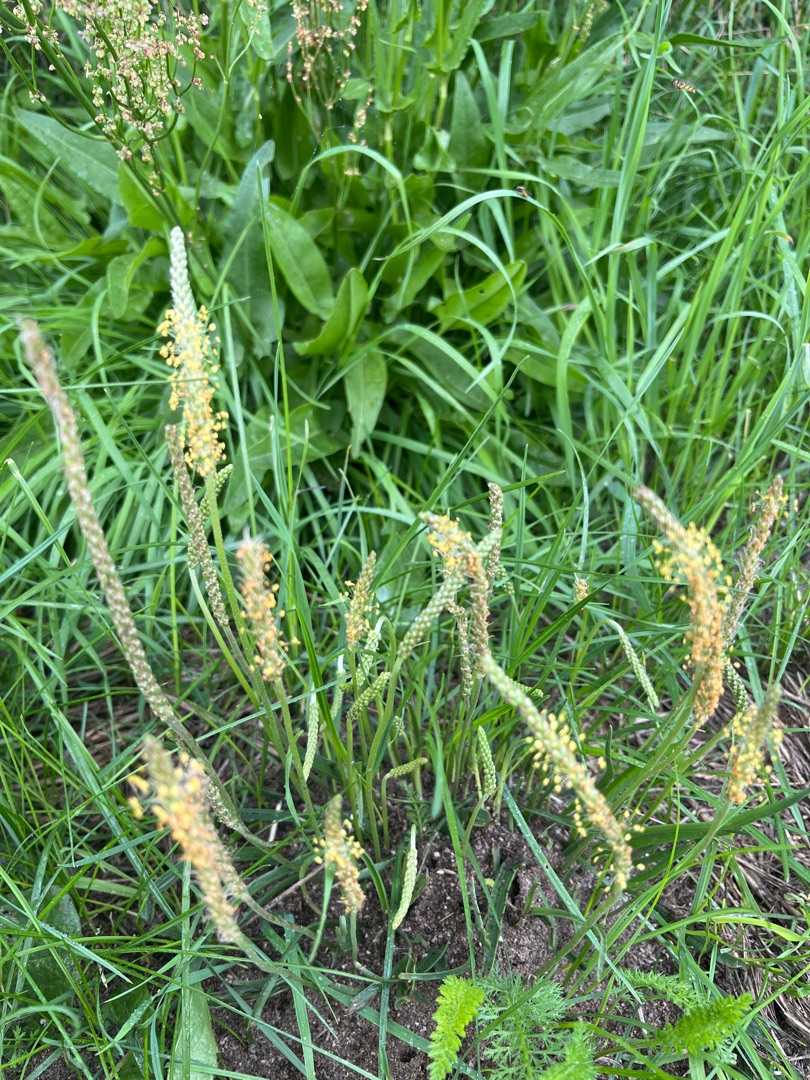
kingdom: Plantae
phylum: Tracheophyta
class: Magnoliopsida
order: Lamiales
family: Plantaginaceae
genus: Plantago
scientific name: Plantago maritima
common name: Strand-vejbred
